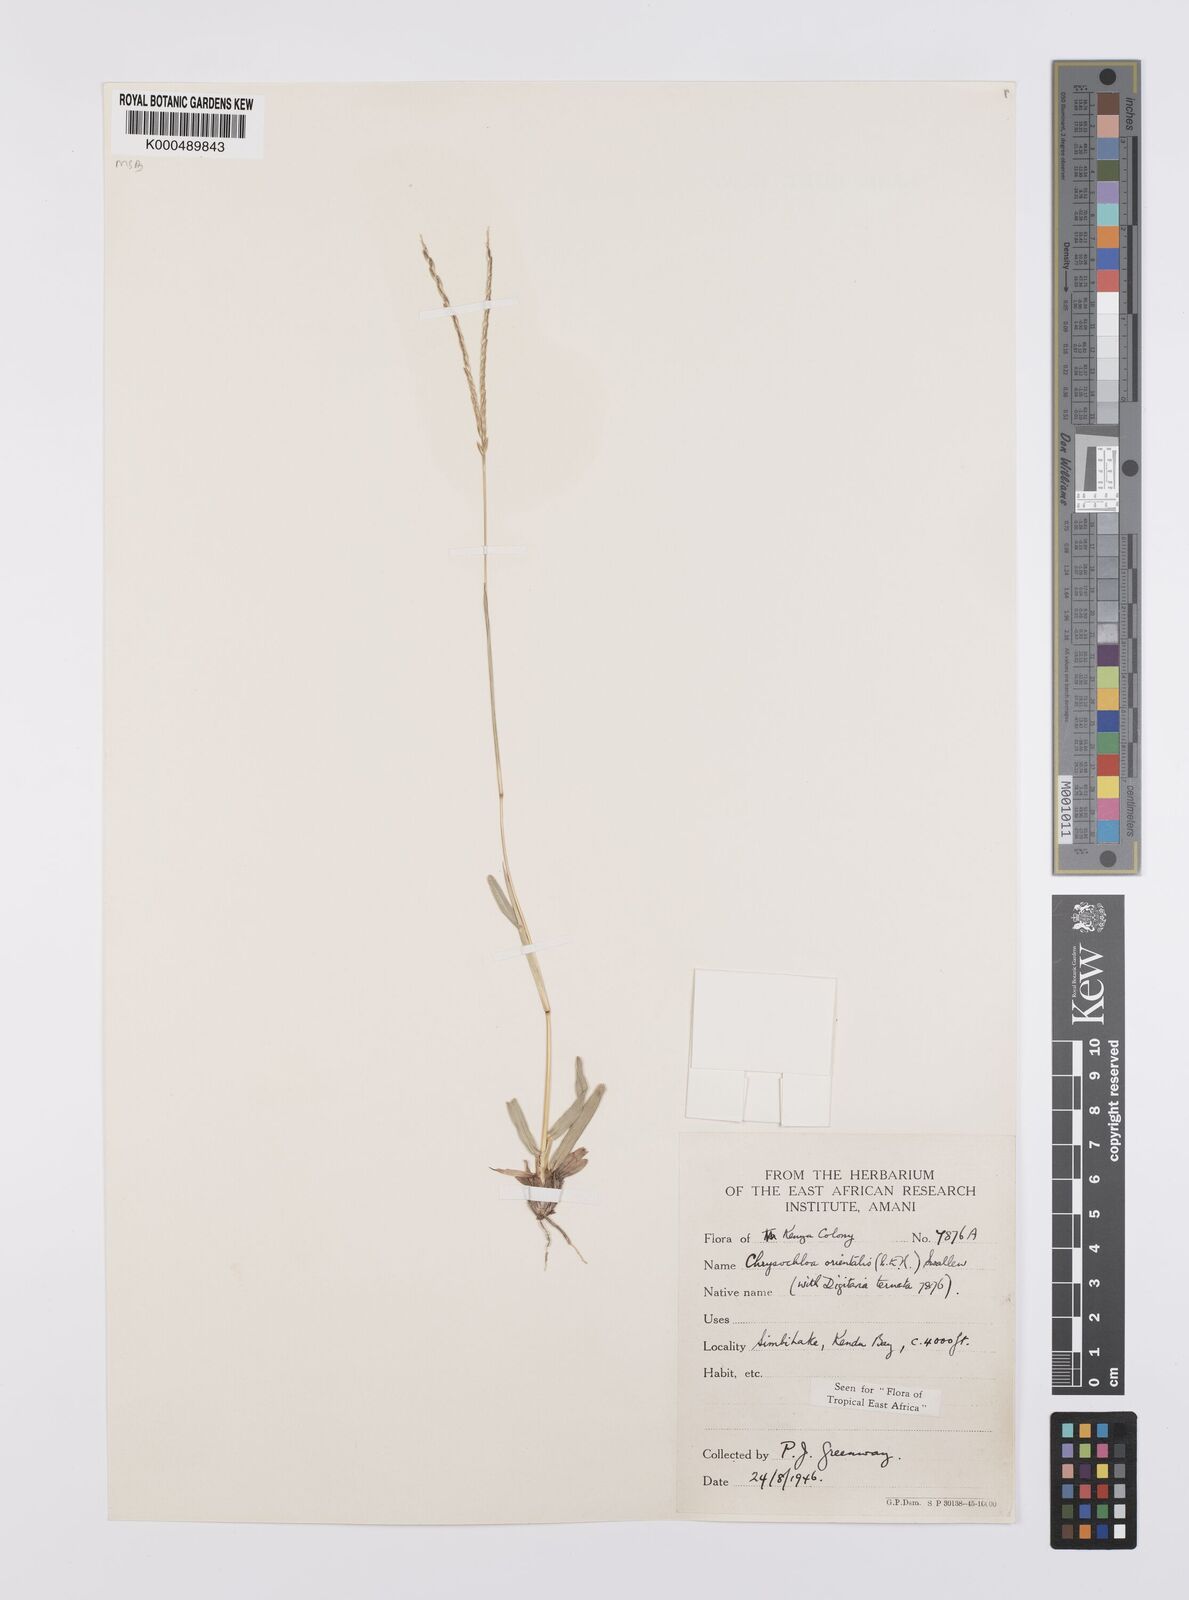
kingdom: Plantae
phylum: Tracheophyta
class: Liliopsida
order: Poales
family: Poaceae
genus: Chrysochloa
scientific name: Chrysochloa
